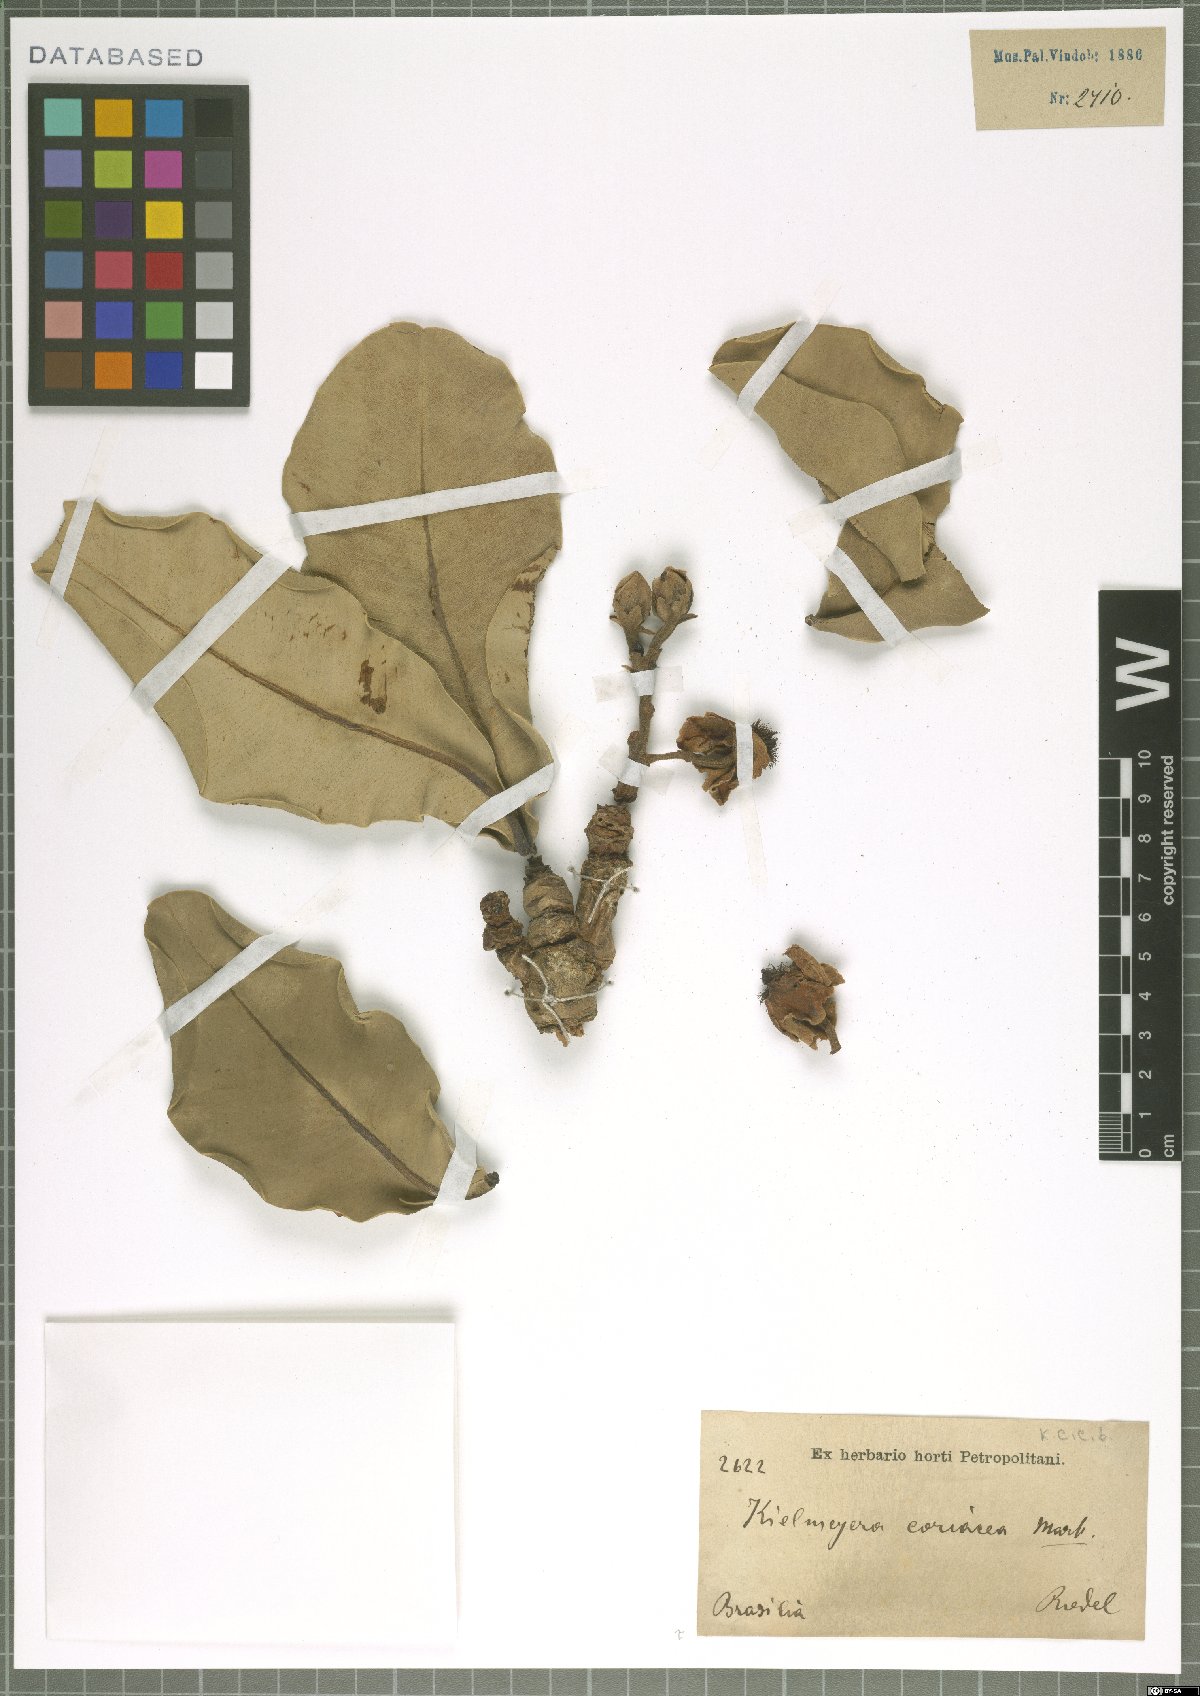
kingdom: Plantae
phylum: Tracheophyta
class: Magnoliopsida
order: Malpighiales
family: Calophyllaceae
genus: Kielmeyera
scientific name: Kielmeyera coriacea
